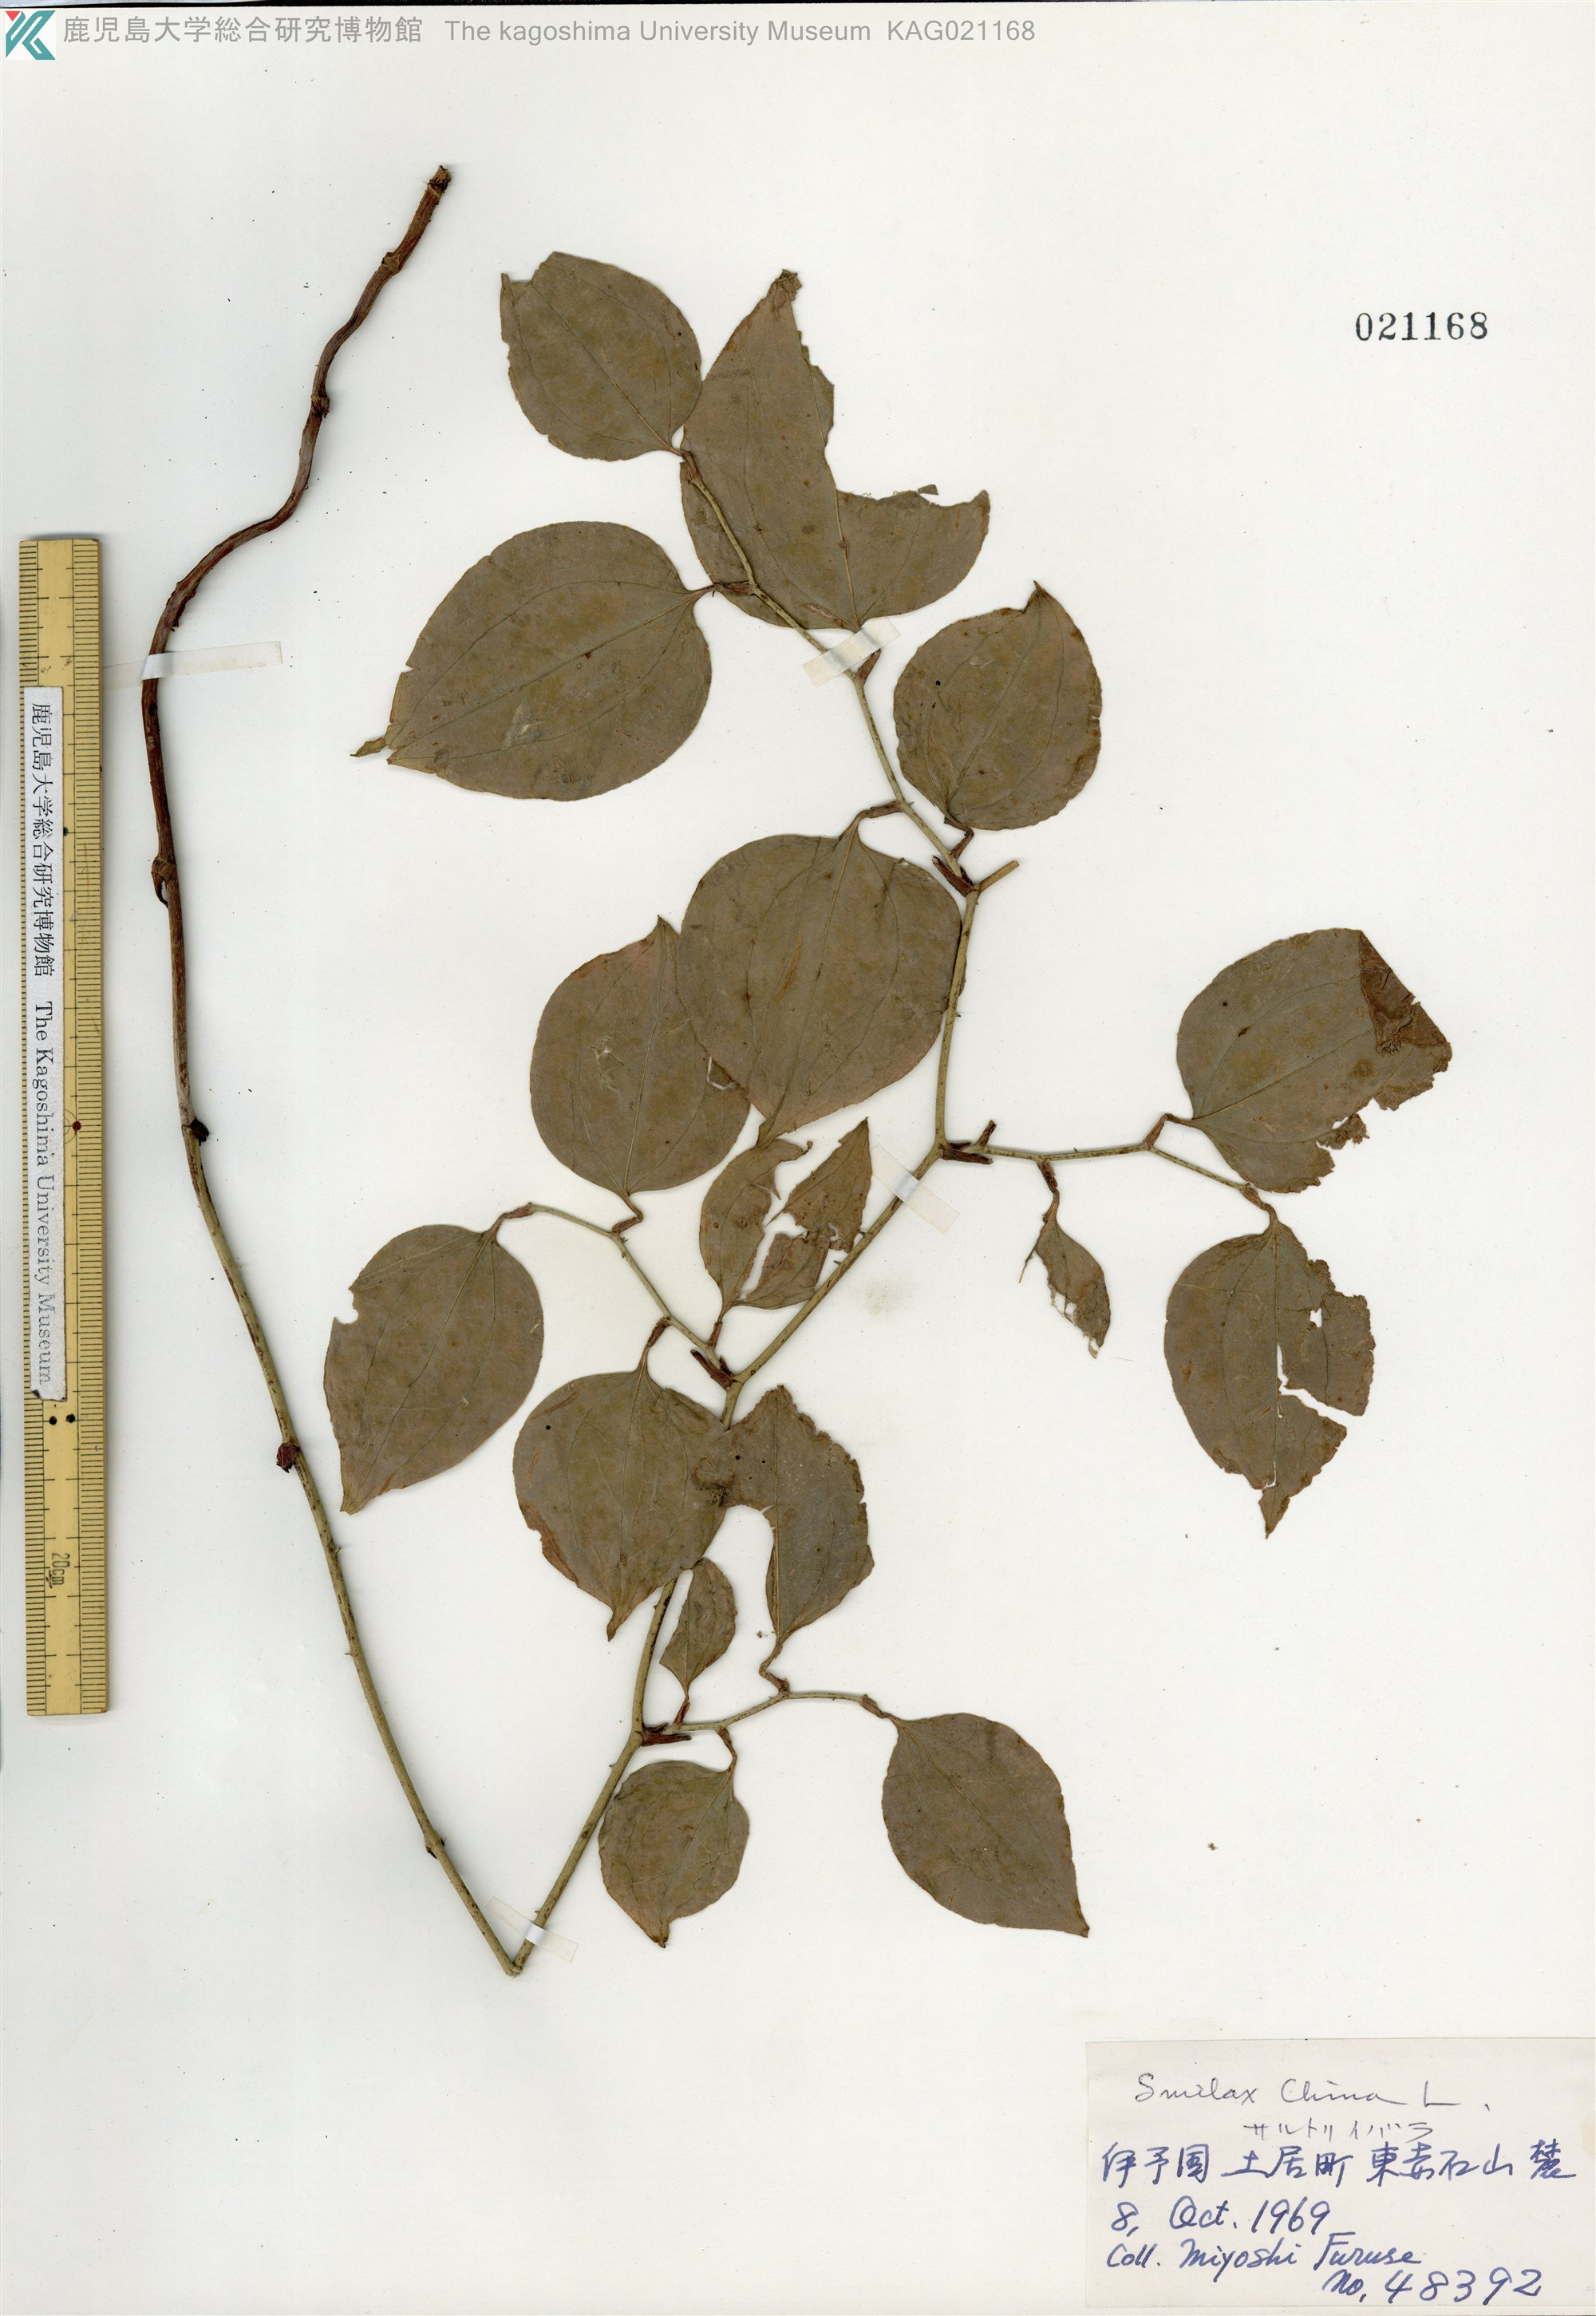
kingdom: Plantae
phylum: Tracheophyta
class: Liliopsida
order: Liliales
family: Smilacaceae
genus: Smilax
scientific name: Smilax china
